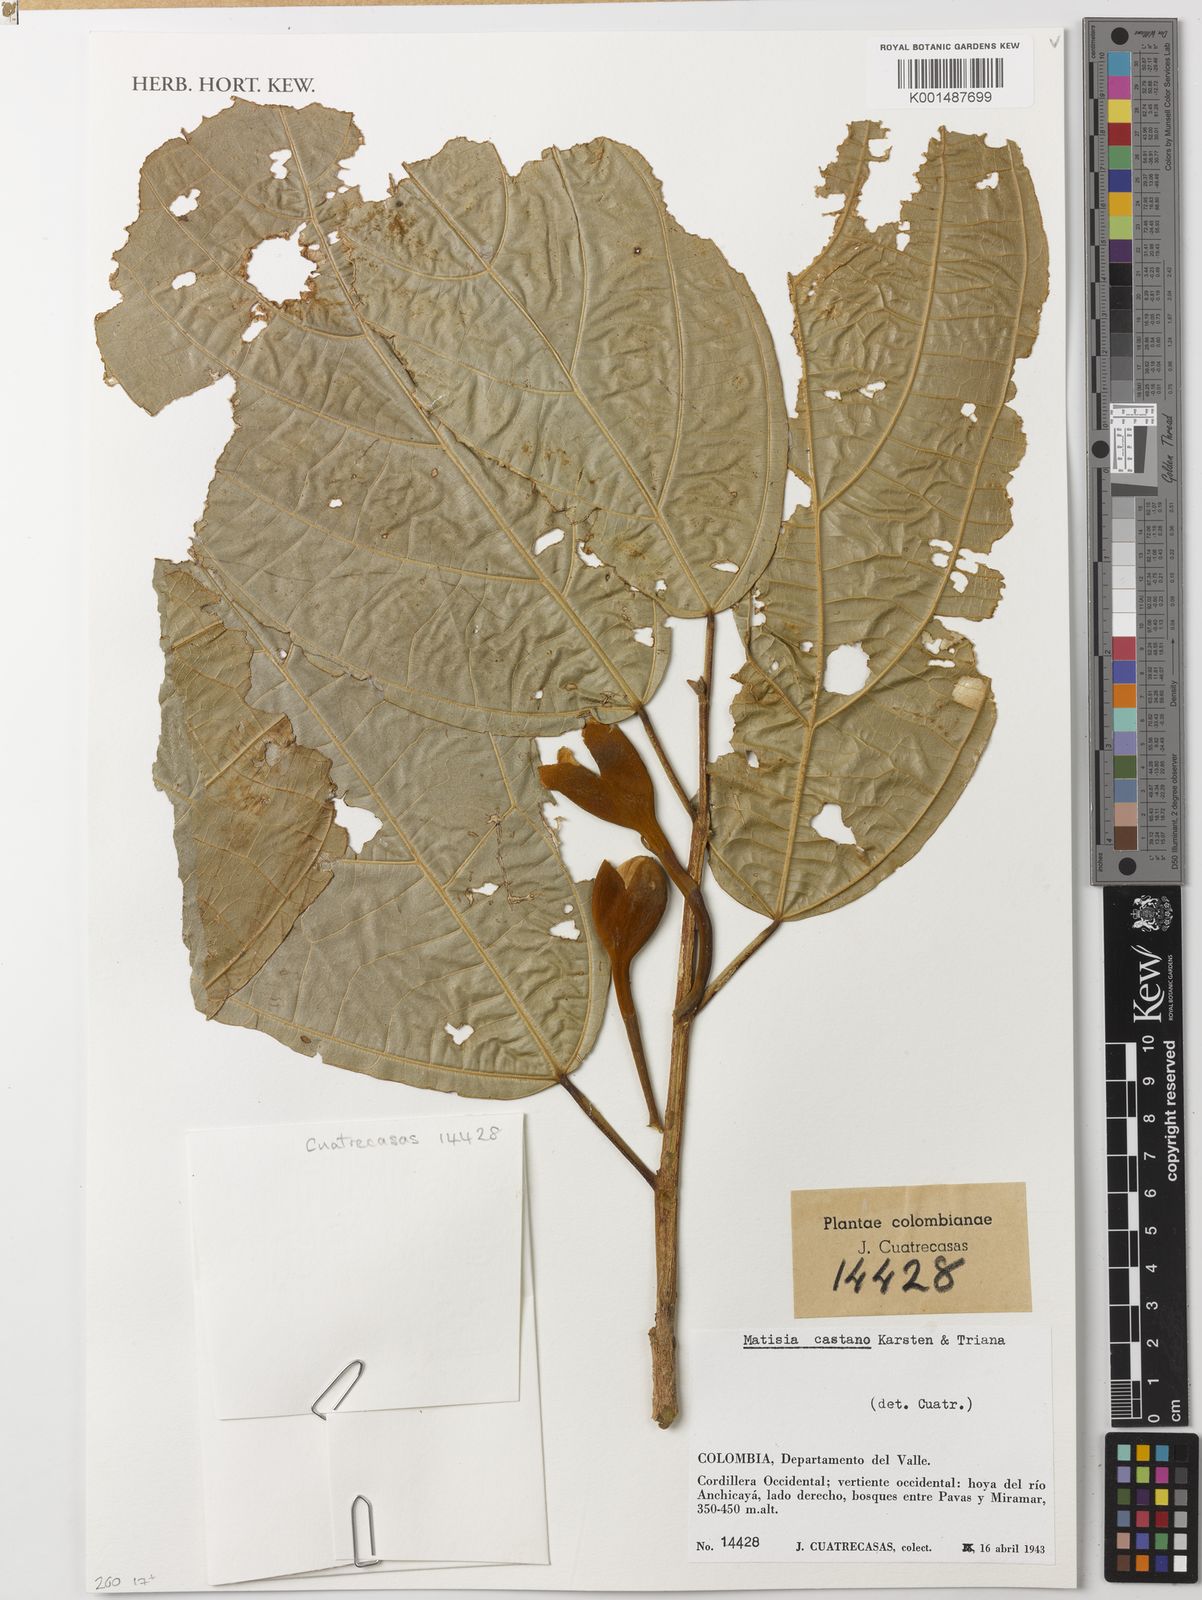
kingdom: Plantae
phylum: Tracheophyta
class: Magnoliopsida
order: Malvales
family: Malvaceae
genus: Matisia
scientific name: Matisia castano
